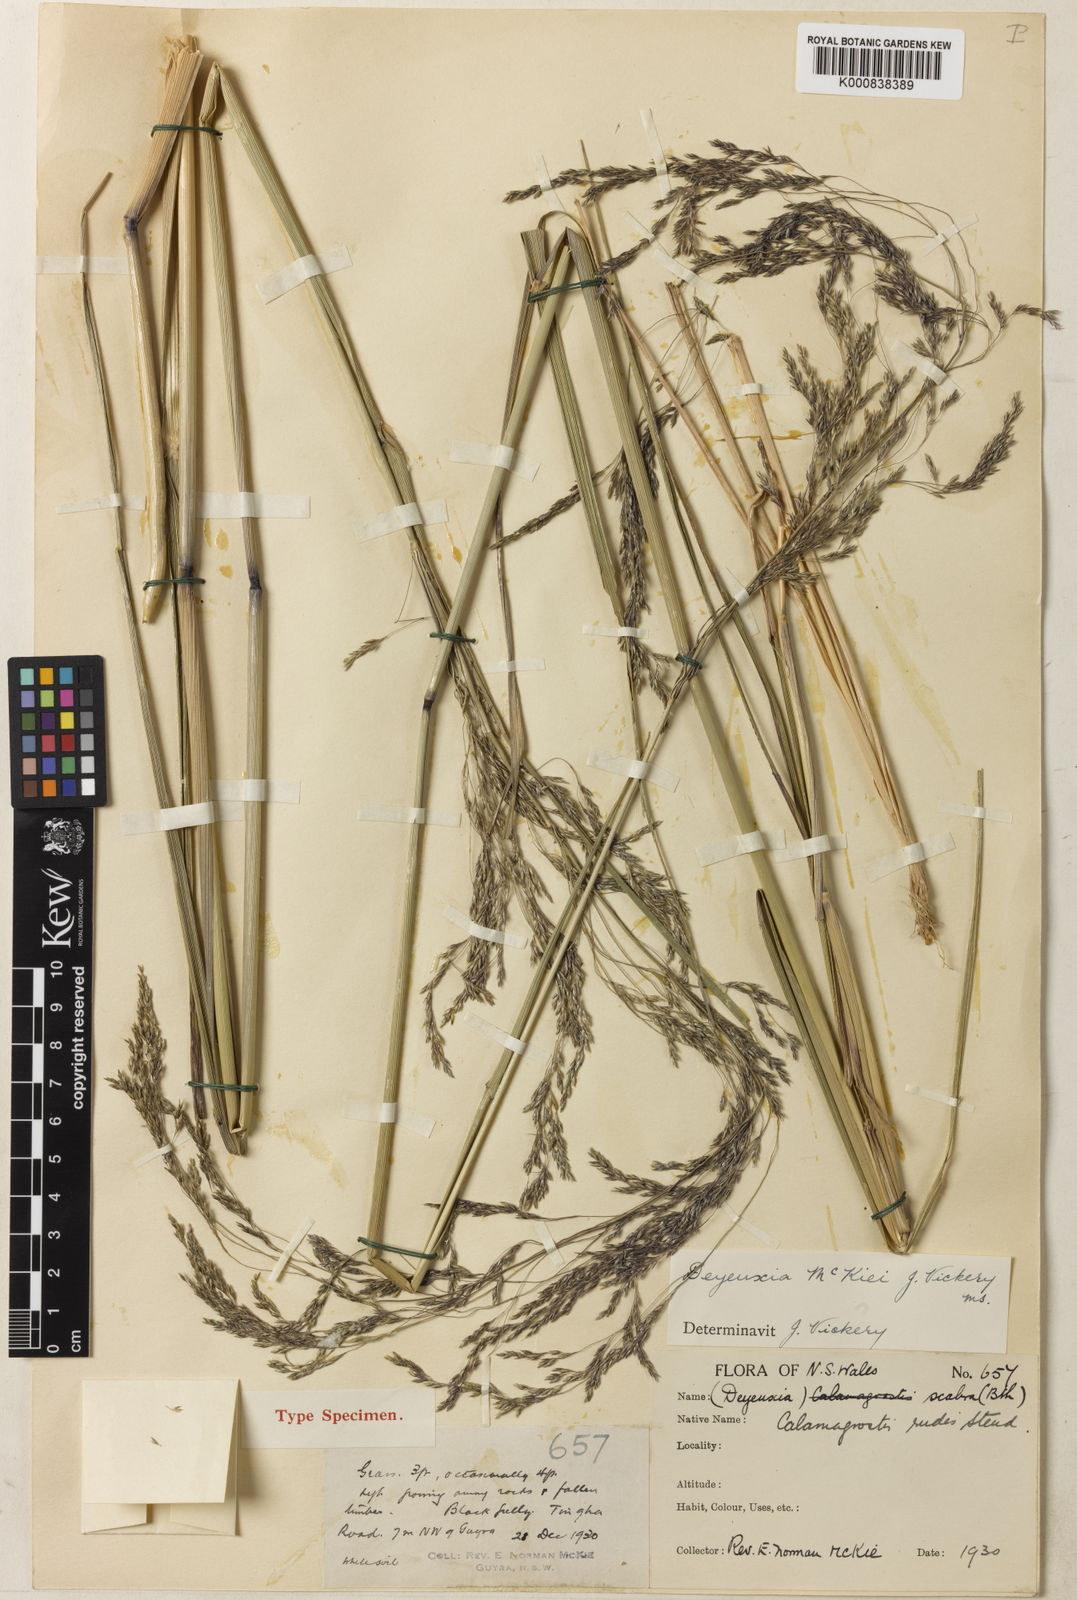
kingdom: Plantae
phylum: Tracheophyta
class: Liliopsida
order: Poales
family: Poaceae
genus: Calamagrostis
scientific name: Calamagrostis mckiei
